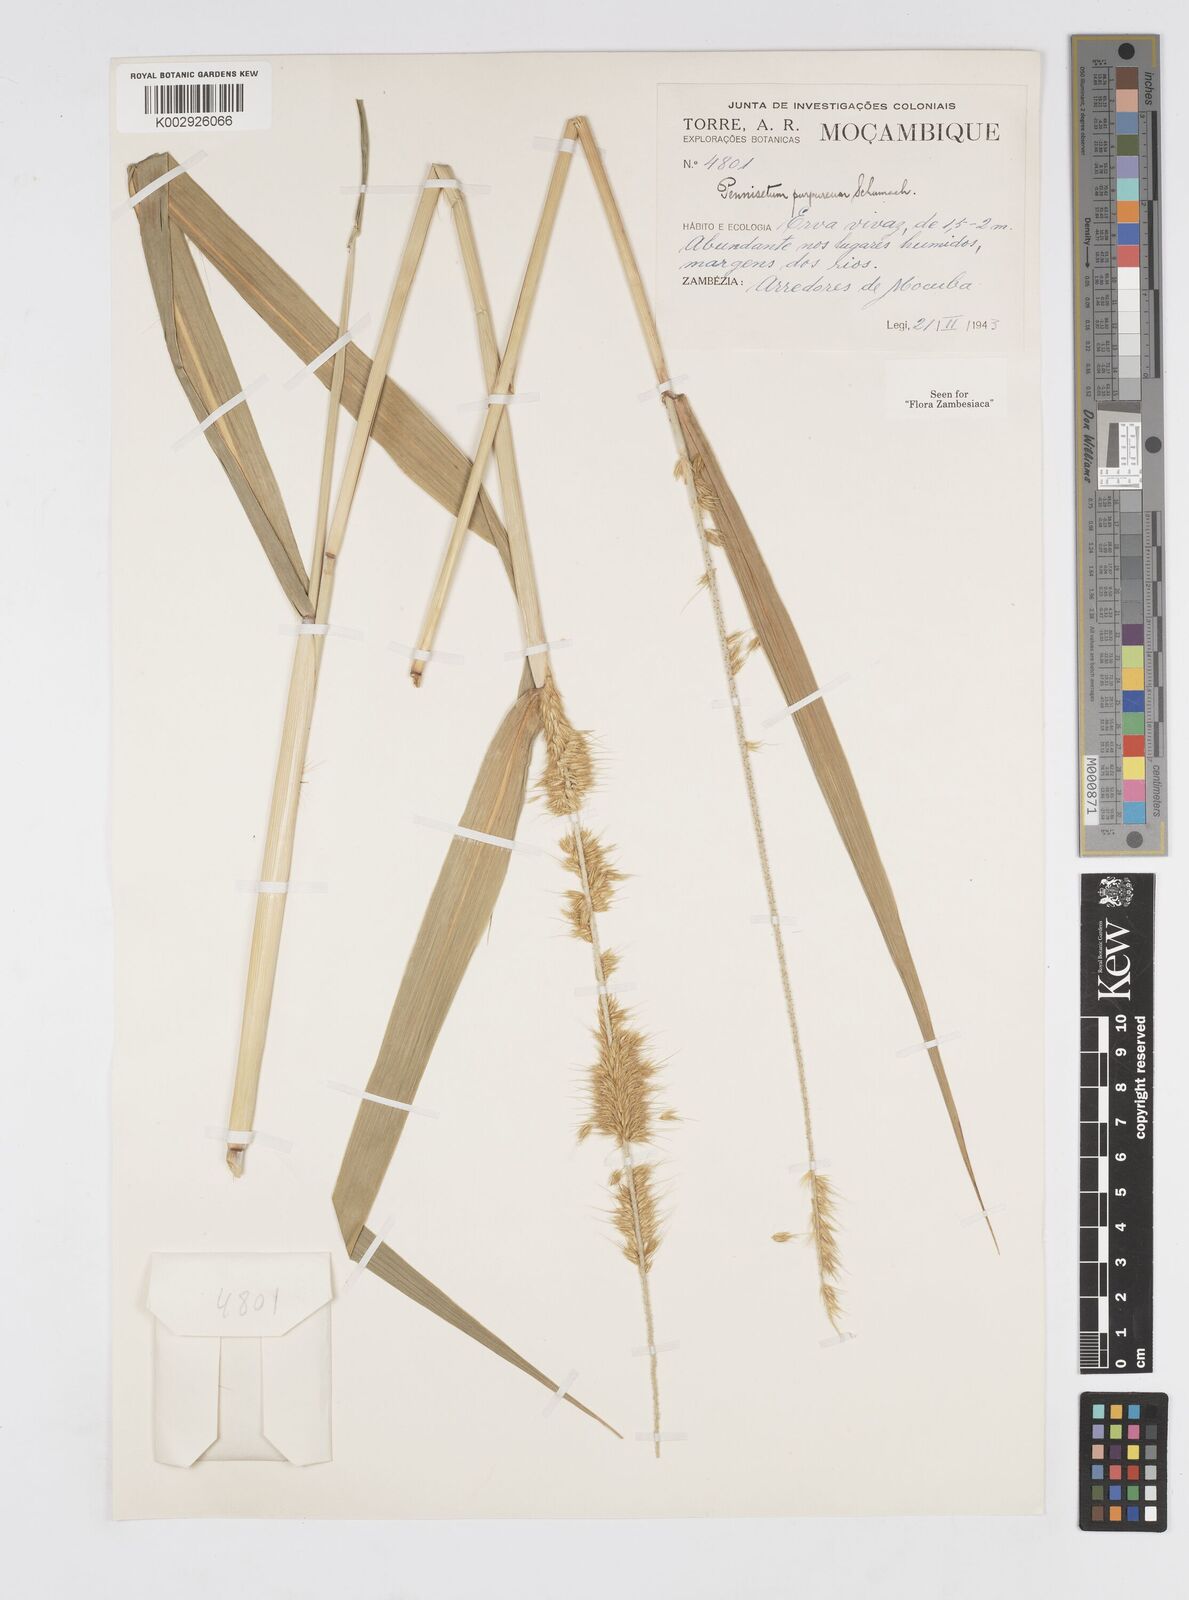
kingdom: Plantae
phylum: Tracheophyta
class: Liliopsida
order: Poales
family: Poaceae
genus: Cenchrus
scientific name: Cenchrus purpureus
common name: Elephant grass
